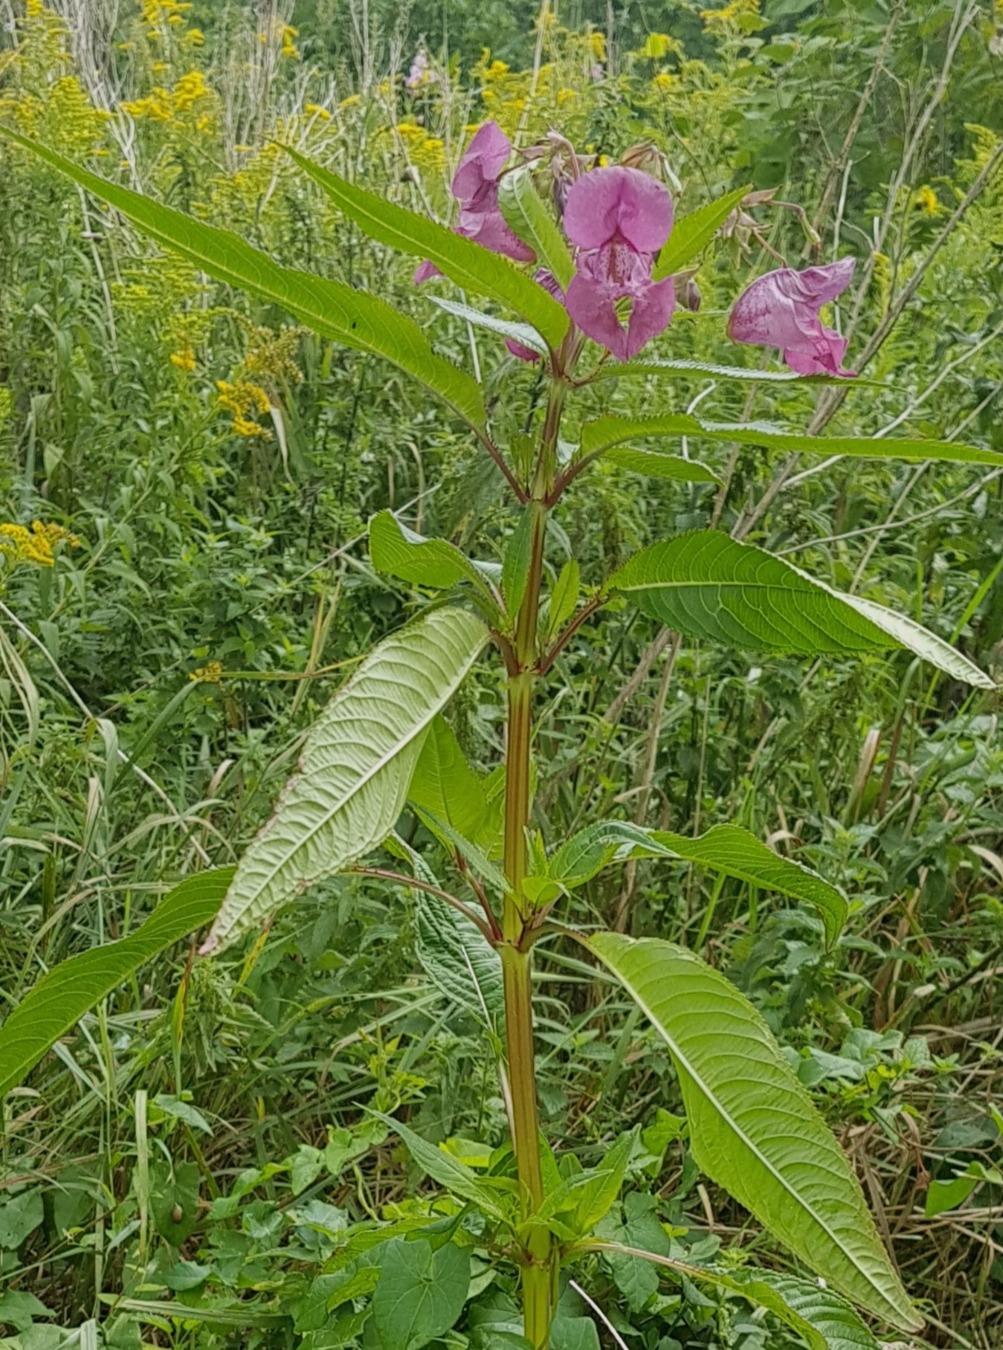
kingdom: Plantae
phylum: Tracheophyta
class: Magnoliopsida
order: Ericales
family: Balsaminaceae
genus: Impatiens
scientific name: Impatiens glandulifera
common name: Kæmpe-balsamin
